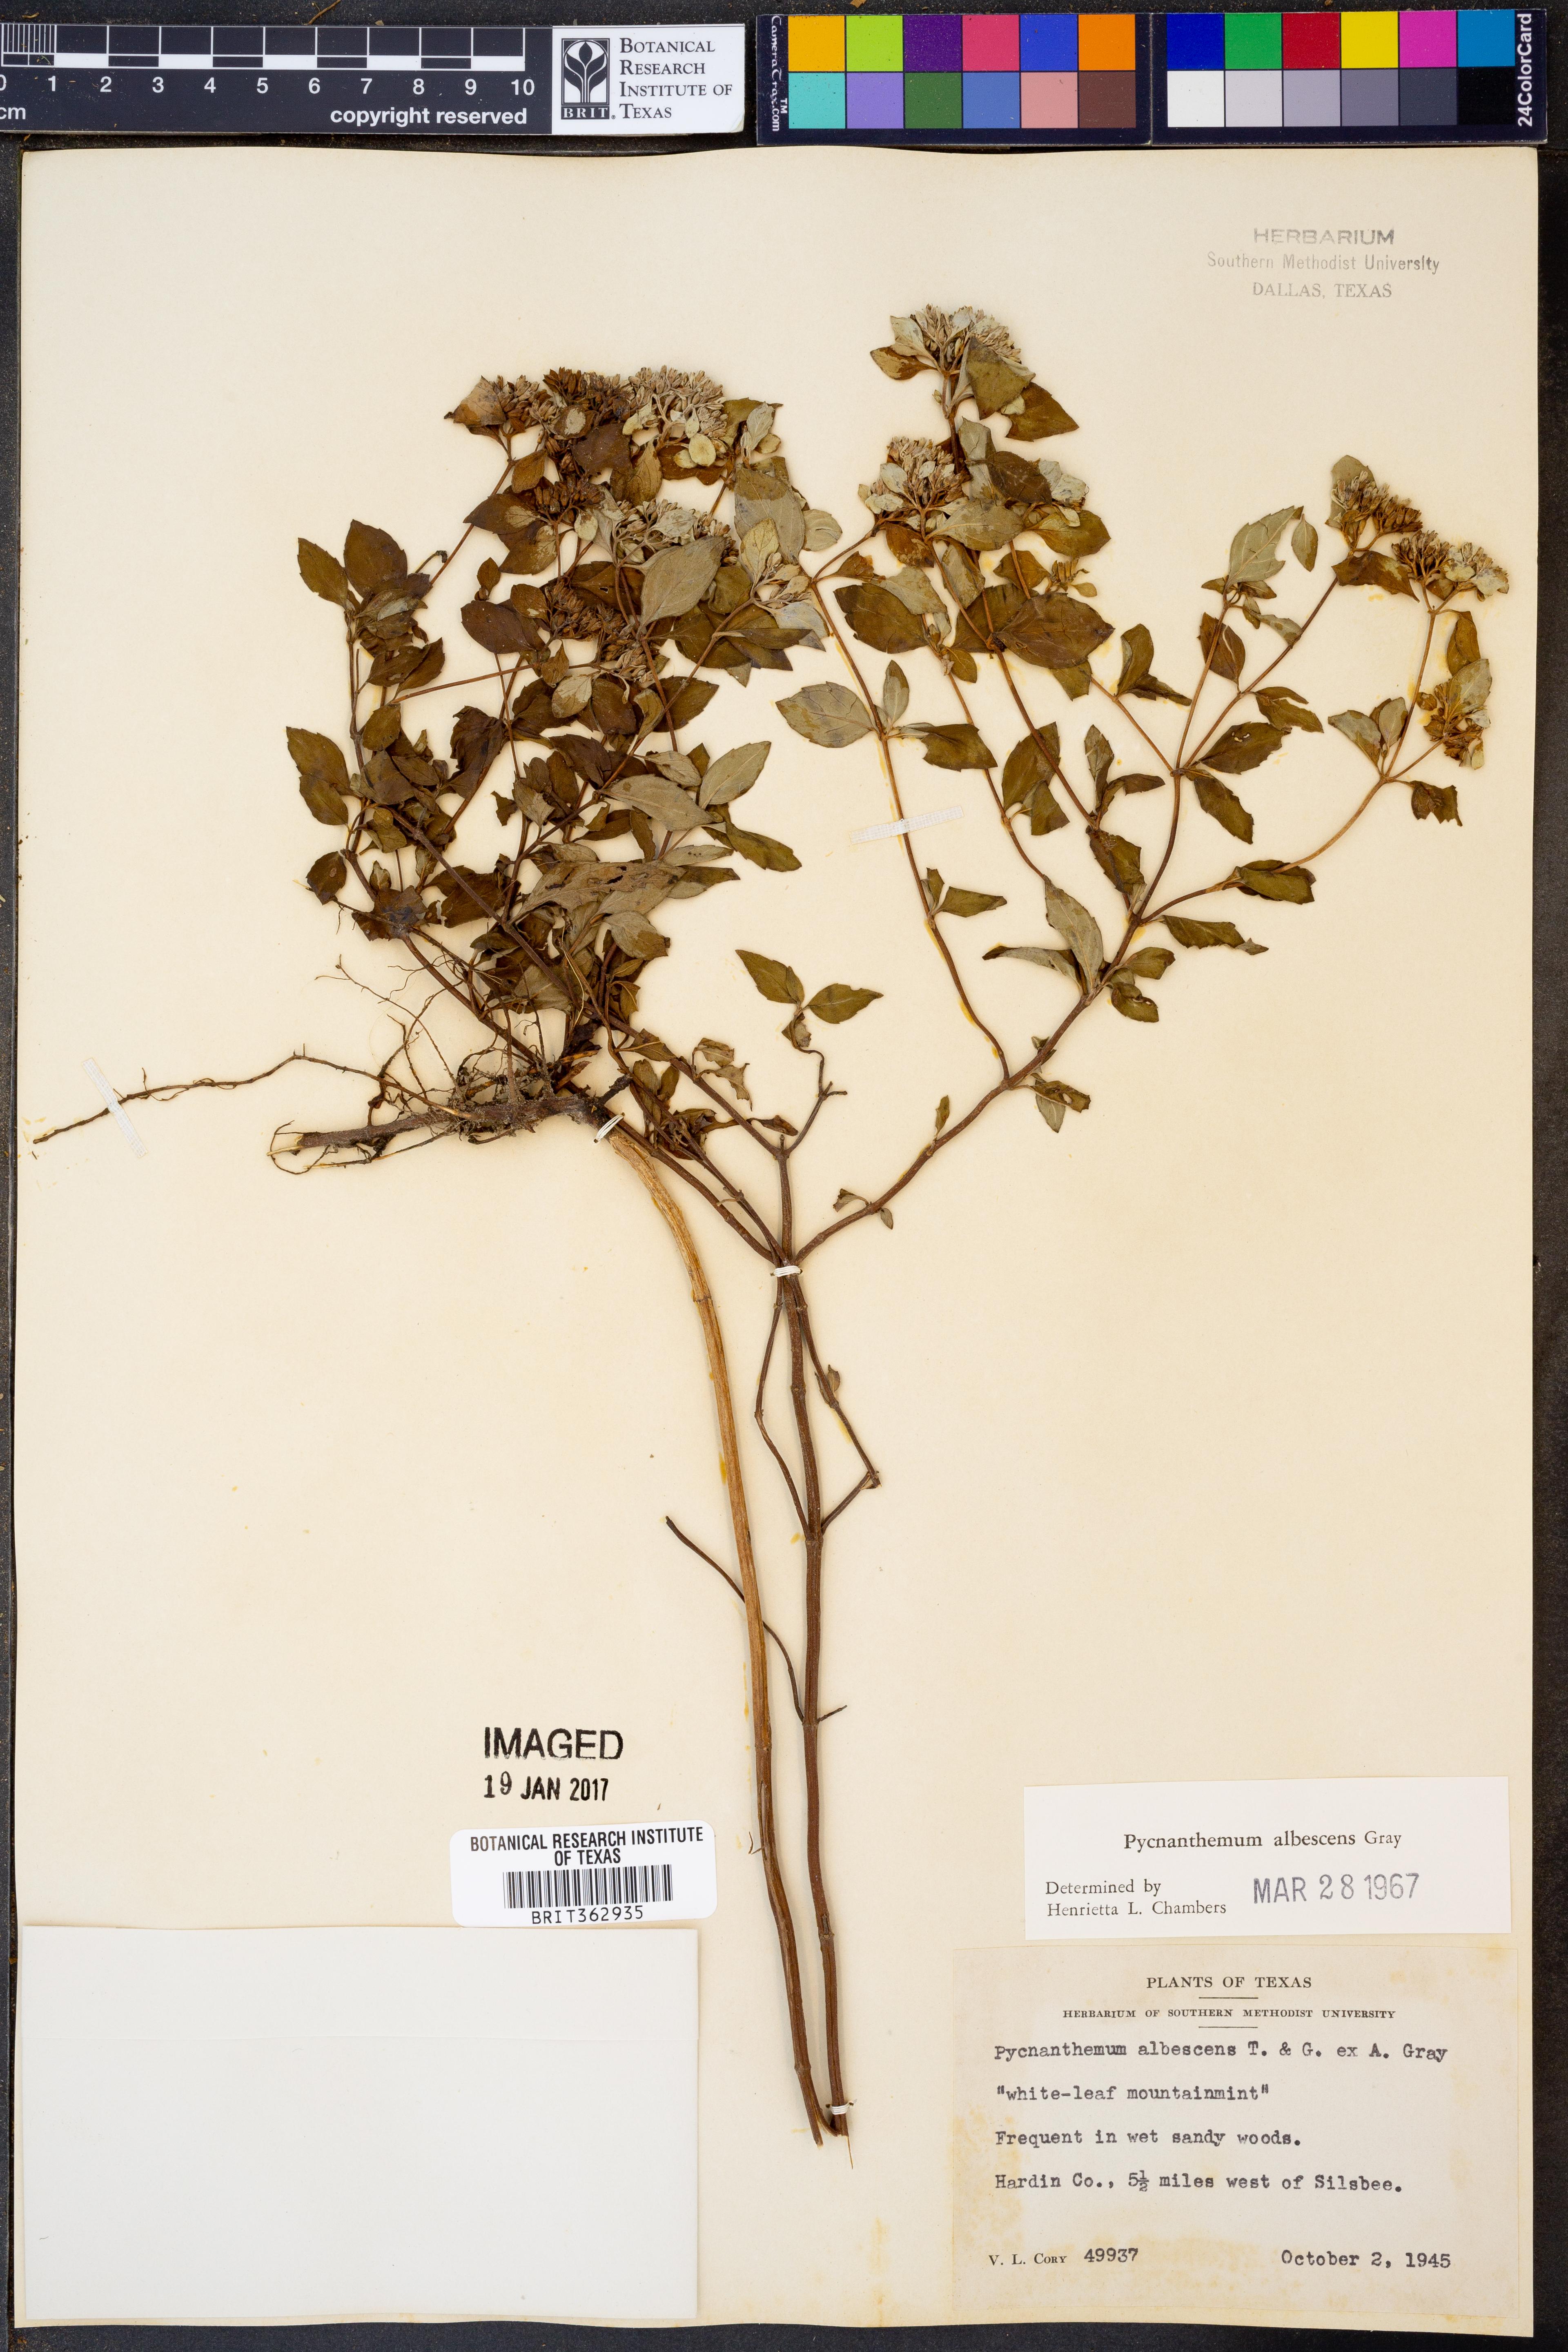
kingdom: Plantae
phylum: Tracheophyta
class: Magnoliopsida
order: Lamiales
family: Lamiaceae
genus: Pycnanthemum
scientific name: Pycnanthemum albescens
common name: White-leaf mountain-mint
